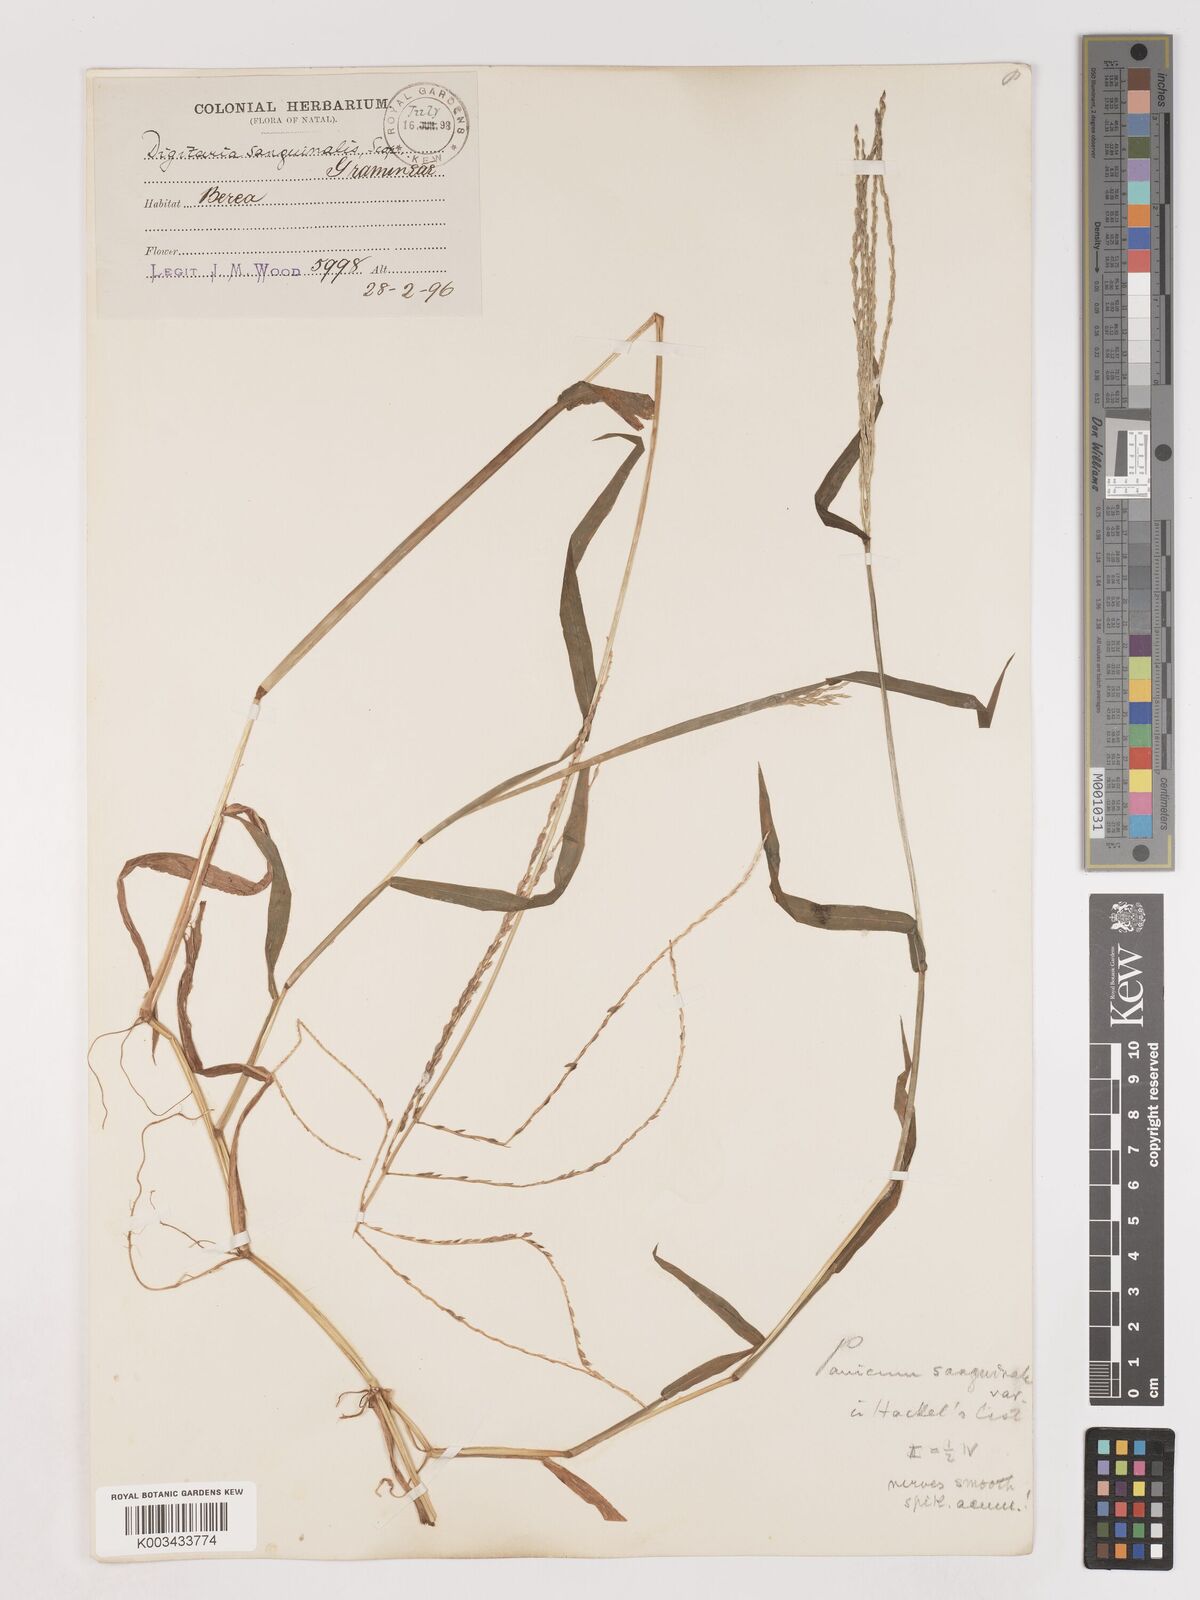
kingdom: Plantae
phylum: Tracheophyta
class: Liliopsida
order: Poales
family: Poaceae
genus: Digitaria
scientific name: Digitaria ciliaris
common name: Tropical finger-grass
